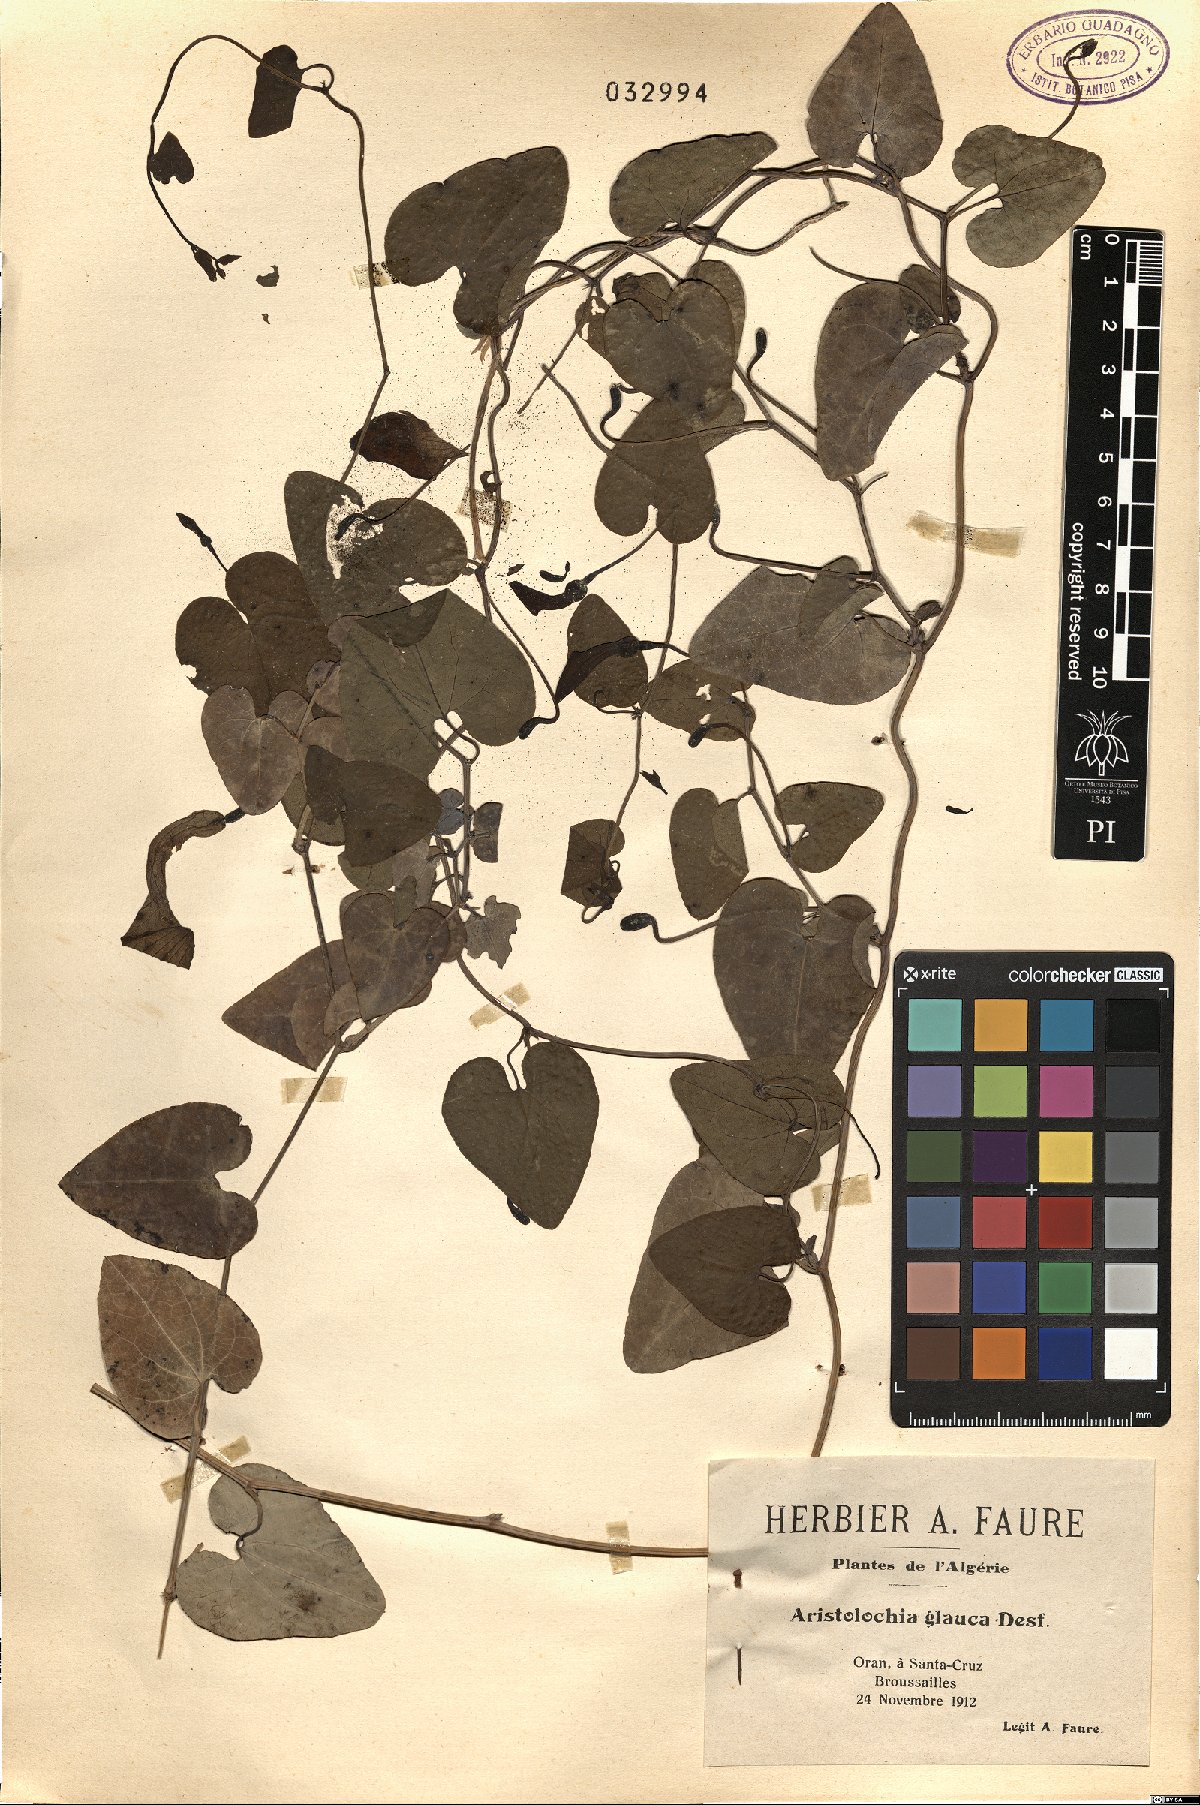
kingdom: Plantae
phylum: Tracheophyta
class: Magnoliopsida
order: Piperales
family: Aristolochiaceae
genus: Aristolochia
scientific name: Aristolochia baetica
